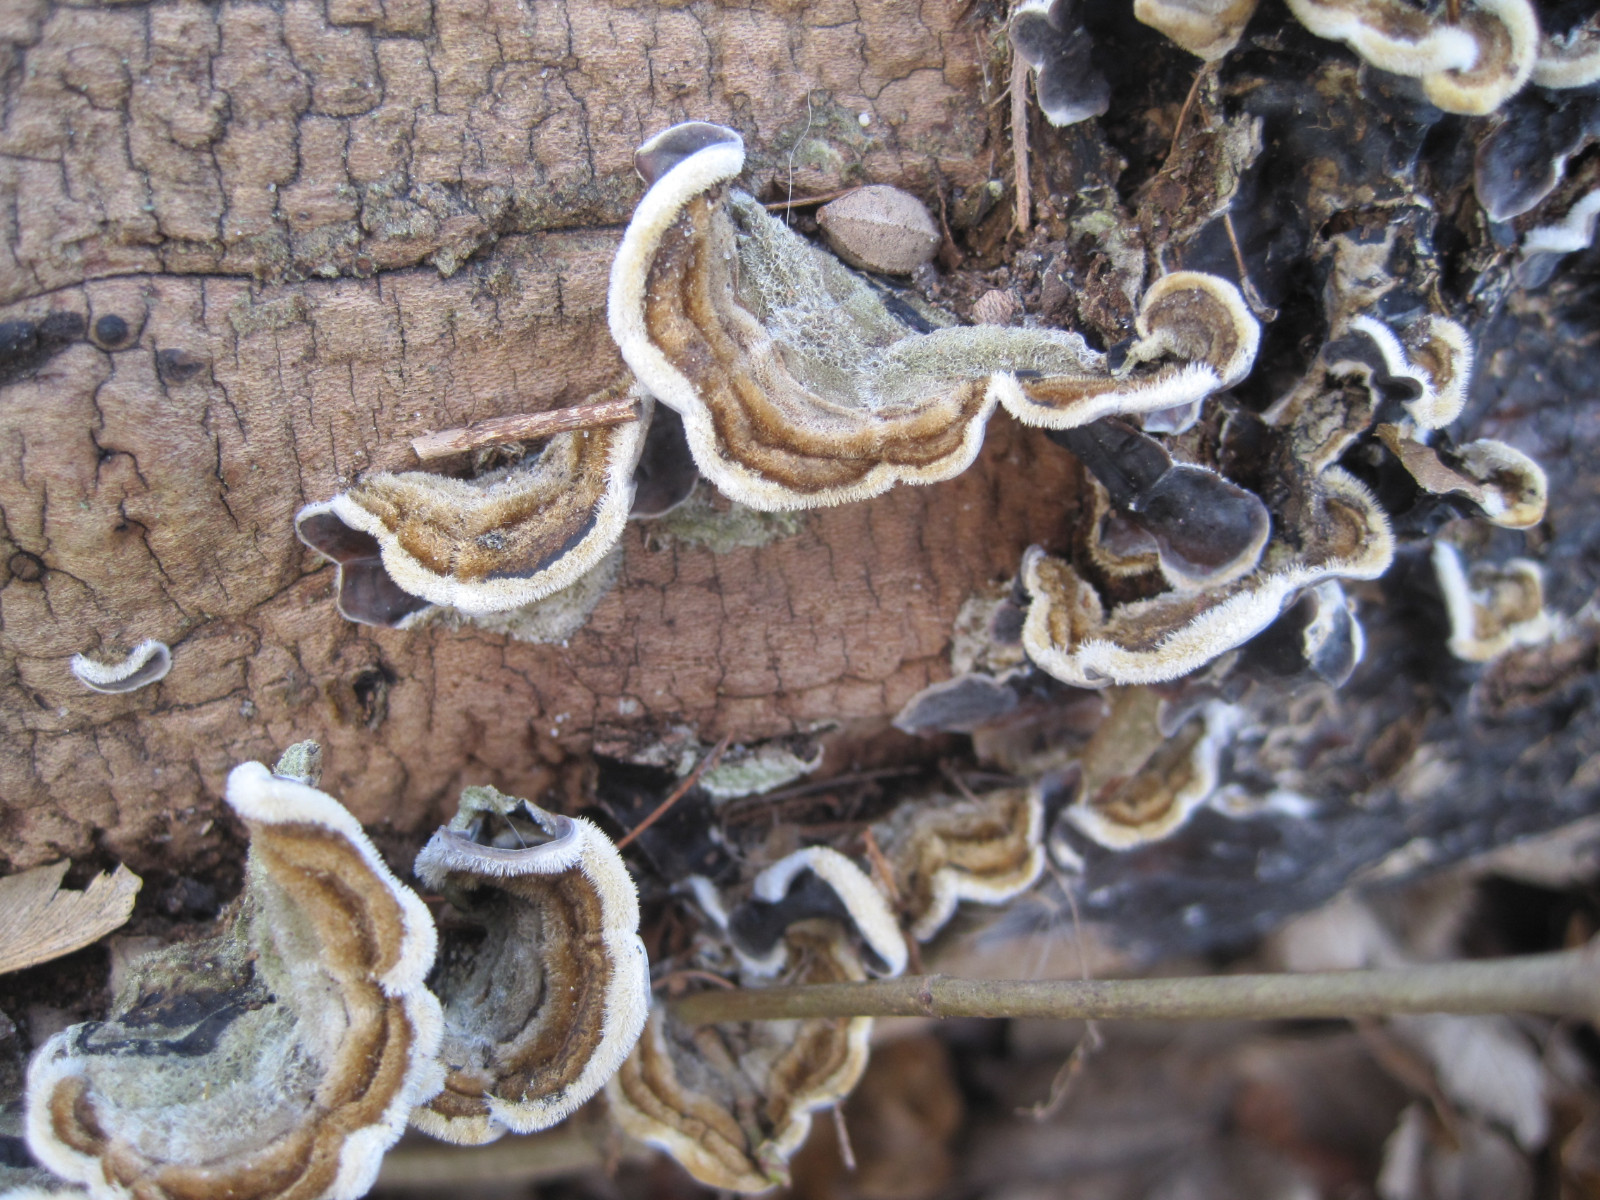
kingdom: Fungi
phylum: Basidiomycota
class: Agaricomycetes
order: Auriculariales
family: Auriculariaceae
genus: Auricularia
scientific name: Auricularia mesenterica
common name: håret judasøre
